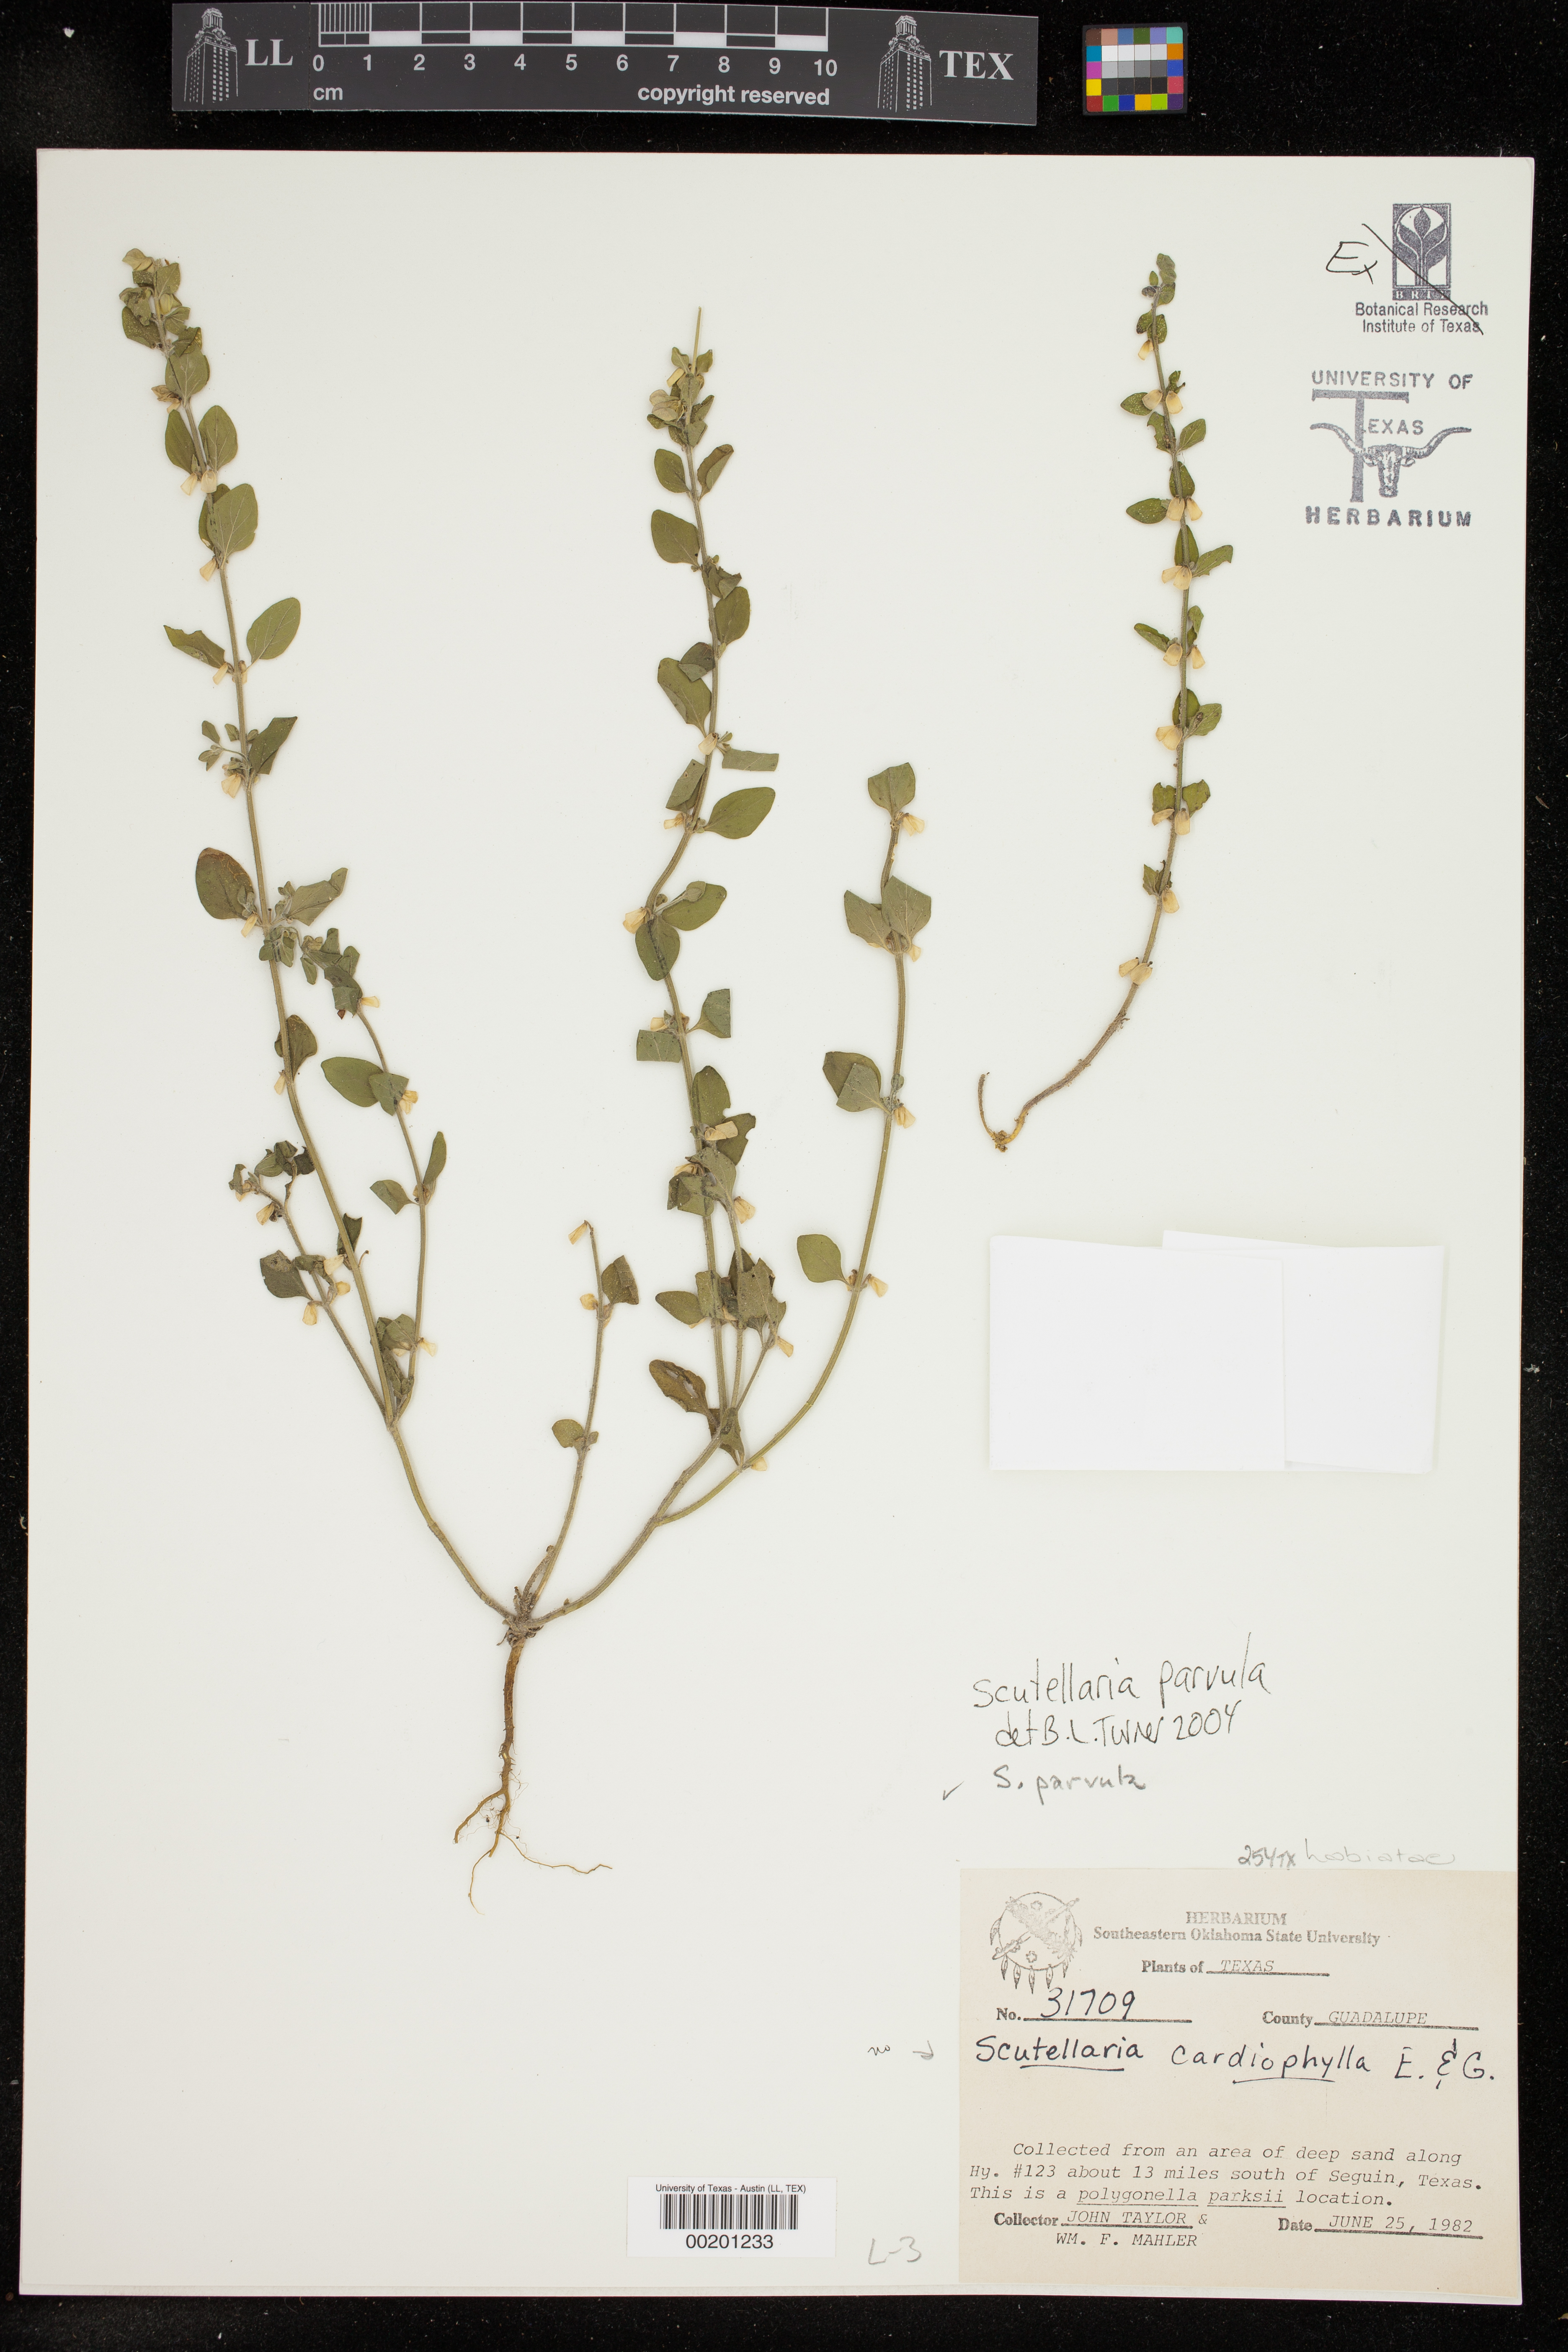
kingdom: Plantae
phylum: Tracheophyta
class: Magnoliopsida
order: Lamiales
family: Lamiaceae
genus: Scutellaria
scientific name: Scutellaria parvula
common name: Little scullcap
